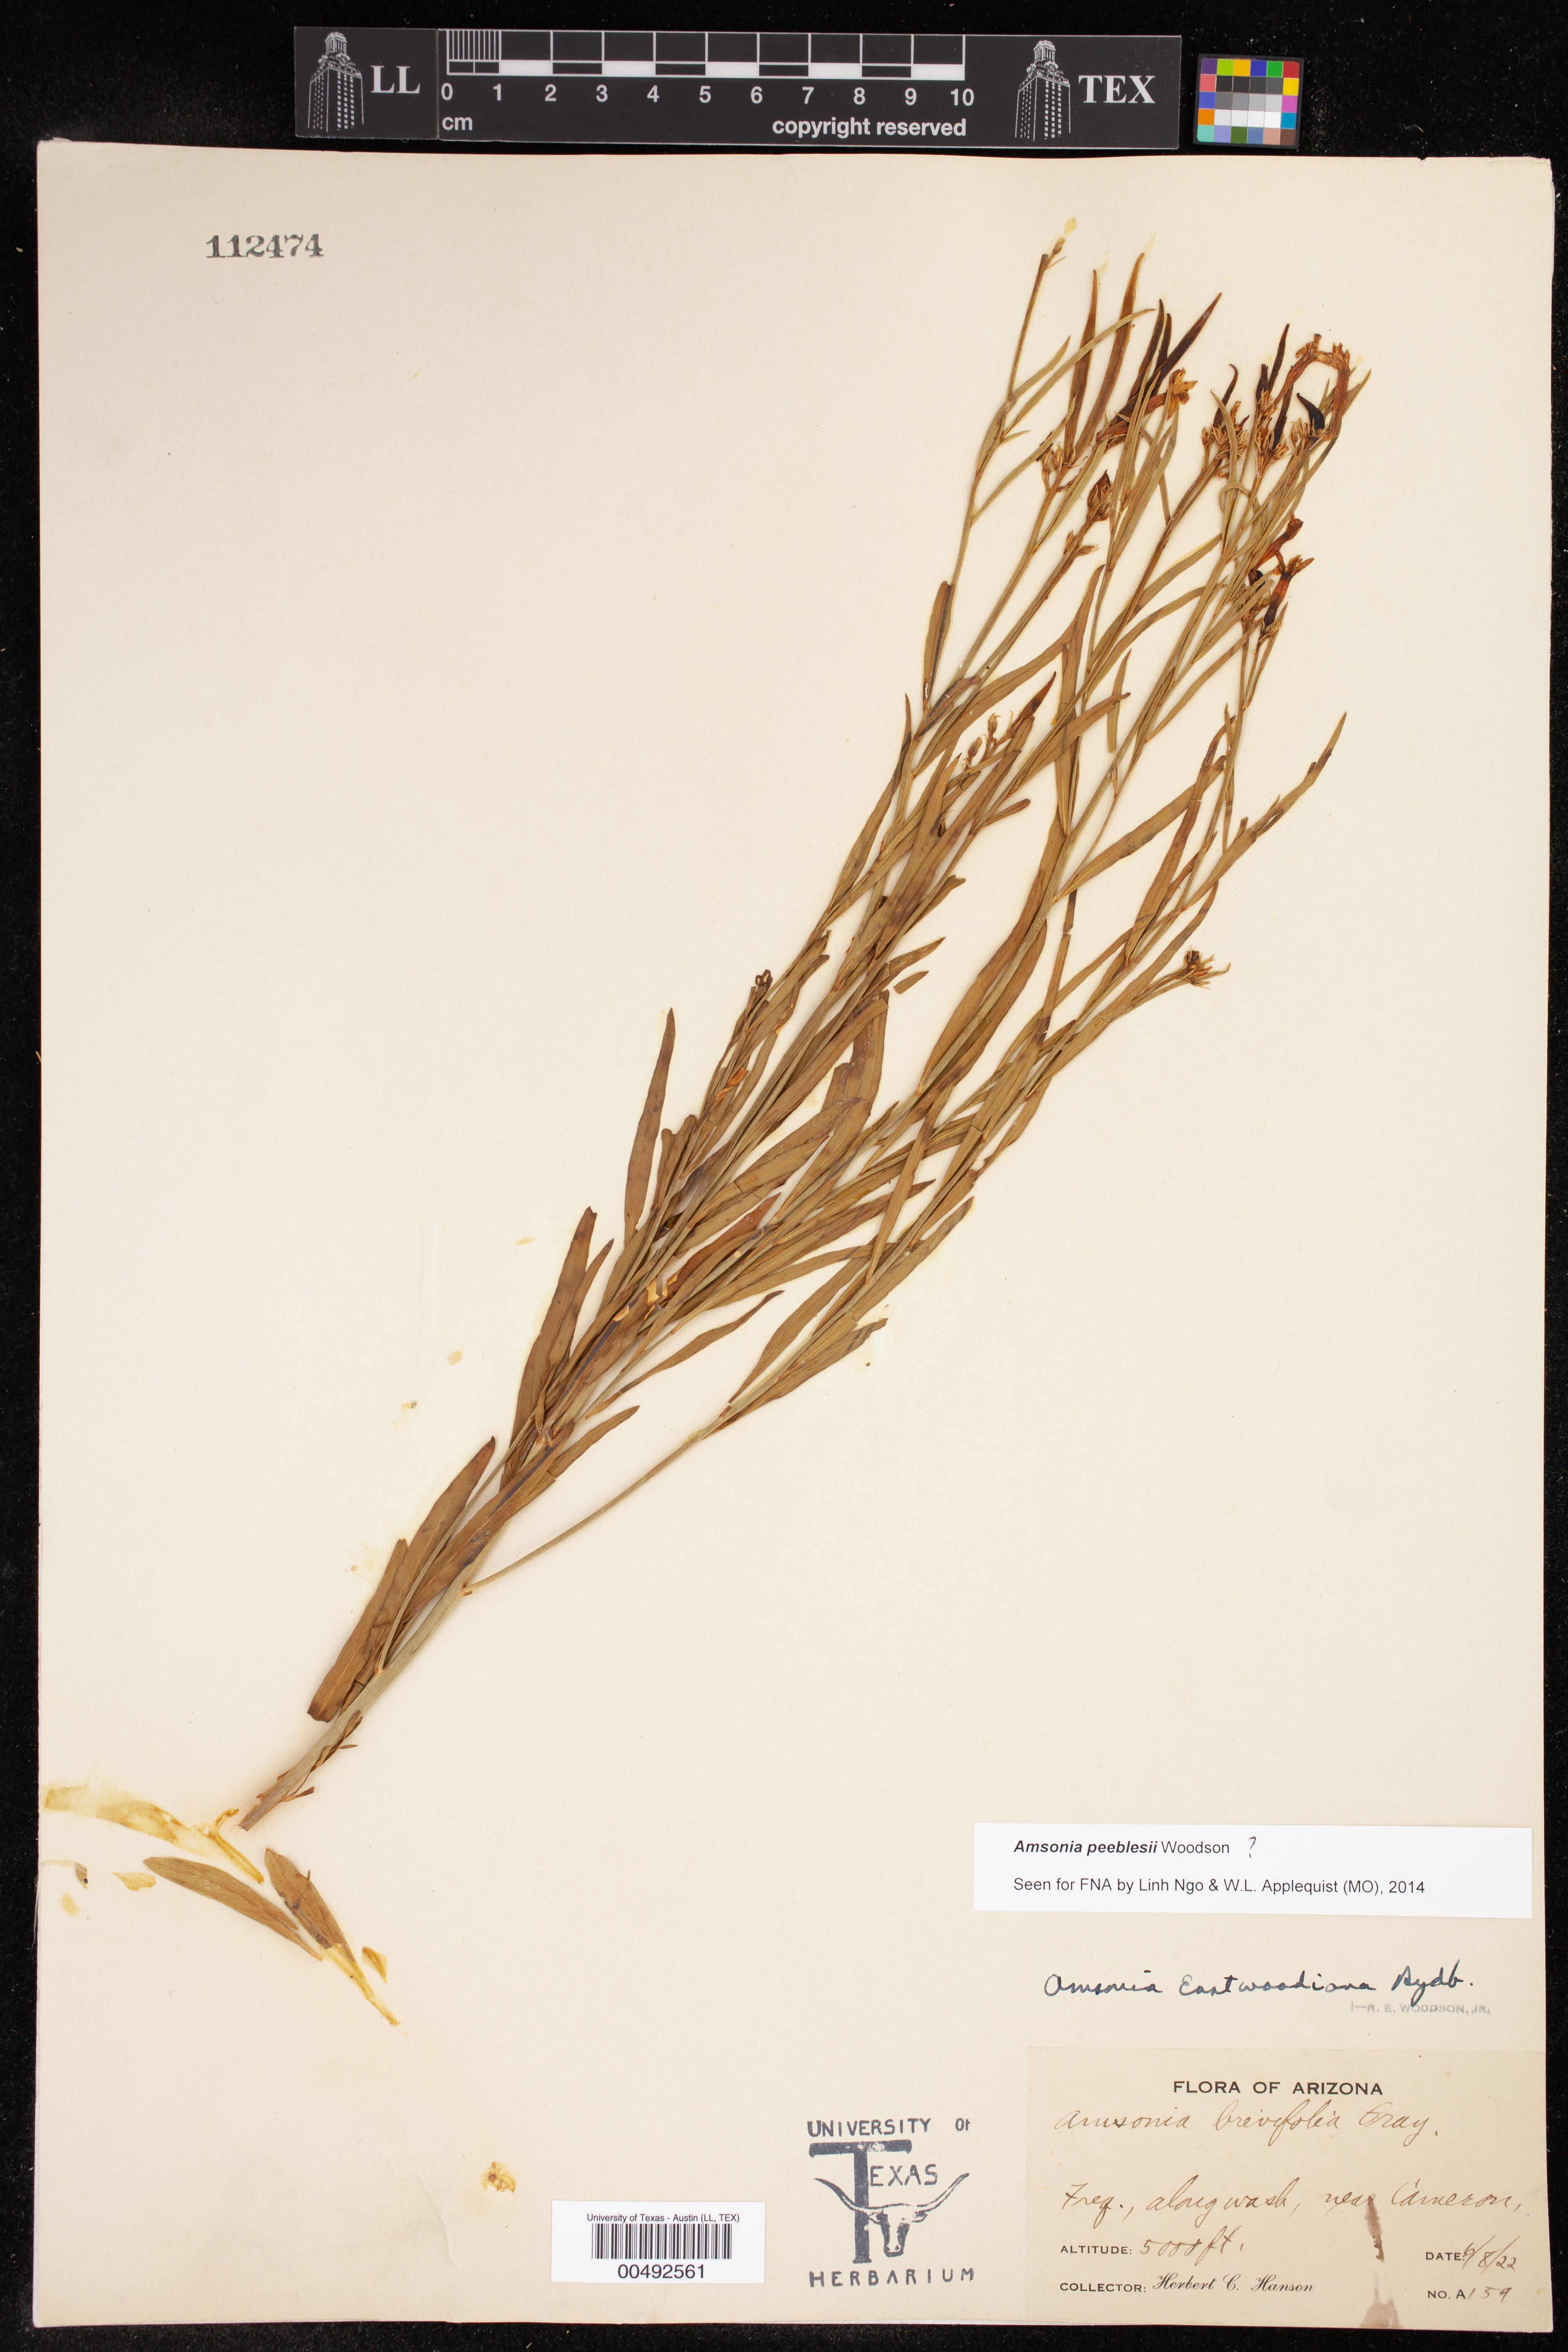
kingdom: Plantae
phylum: Tracheophyta
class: Magnoliopsida
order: Gentianales
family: Apocynaceae
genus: Amsonia
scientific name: Amsonia peeblesii
